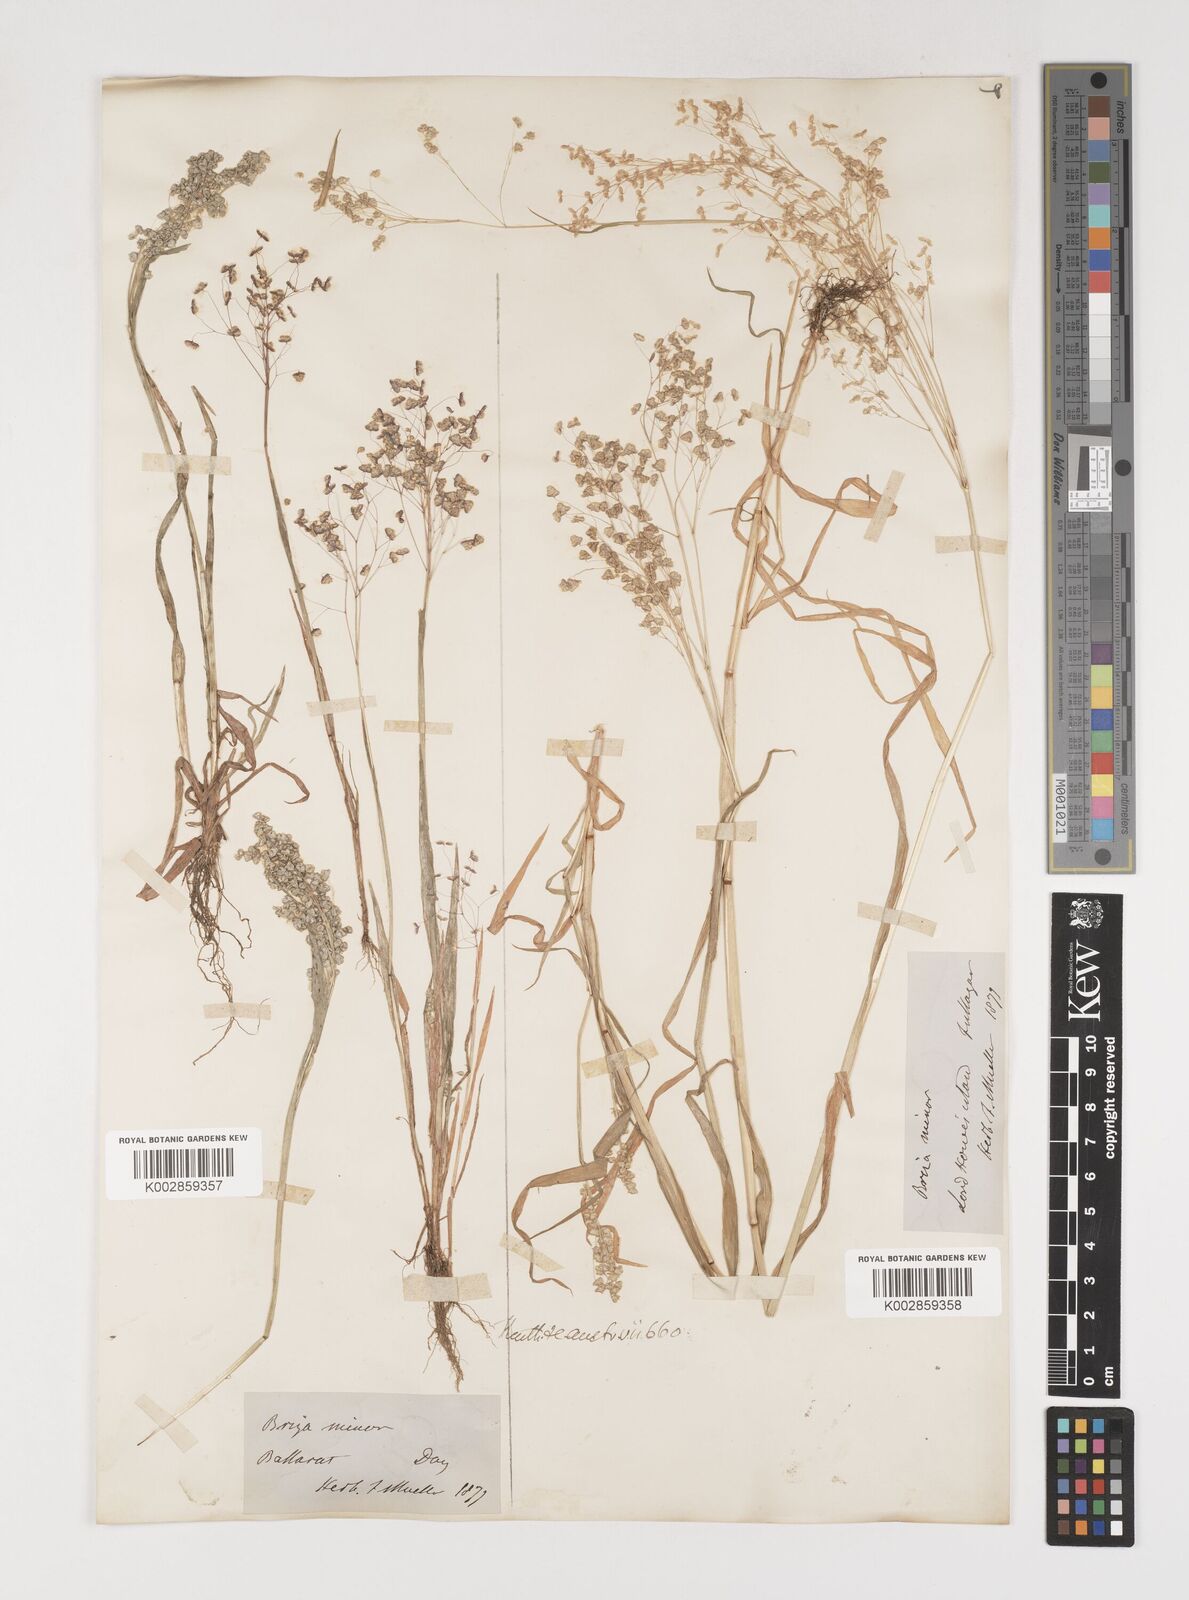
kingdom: Plantae
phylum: Tracheophyta
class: Liliopsida
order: Poales
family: Poaceae
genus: Briza
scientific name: Briza minor
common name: Lesser quaking-grass
